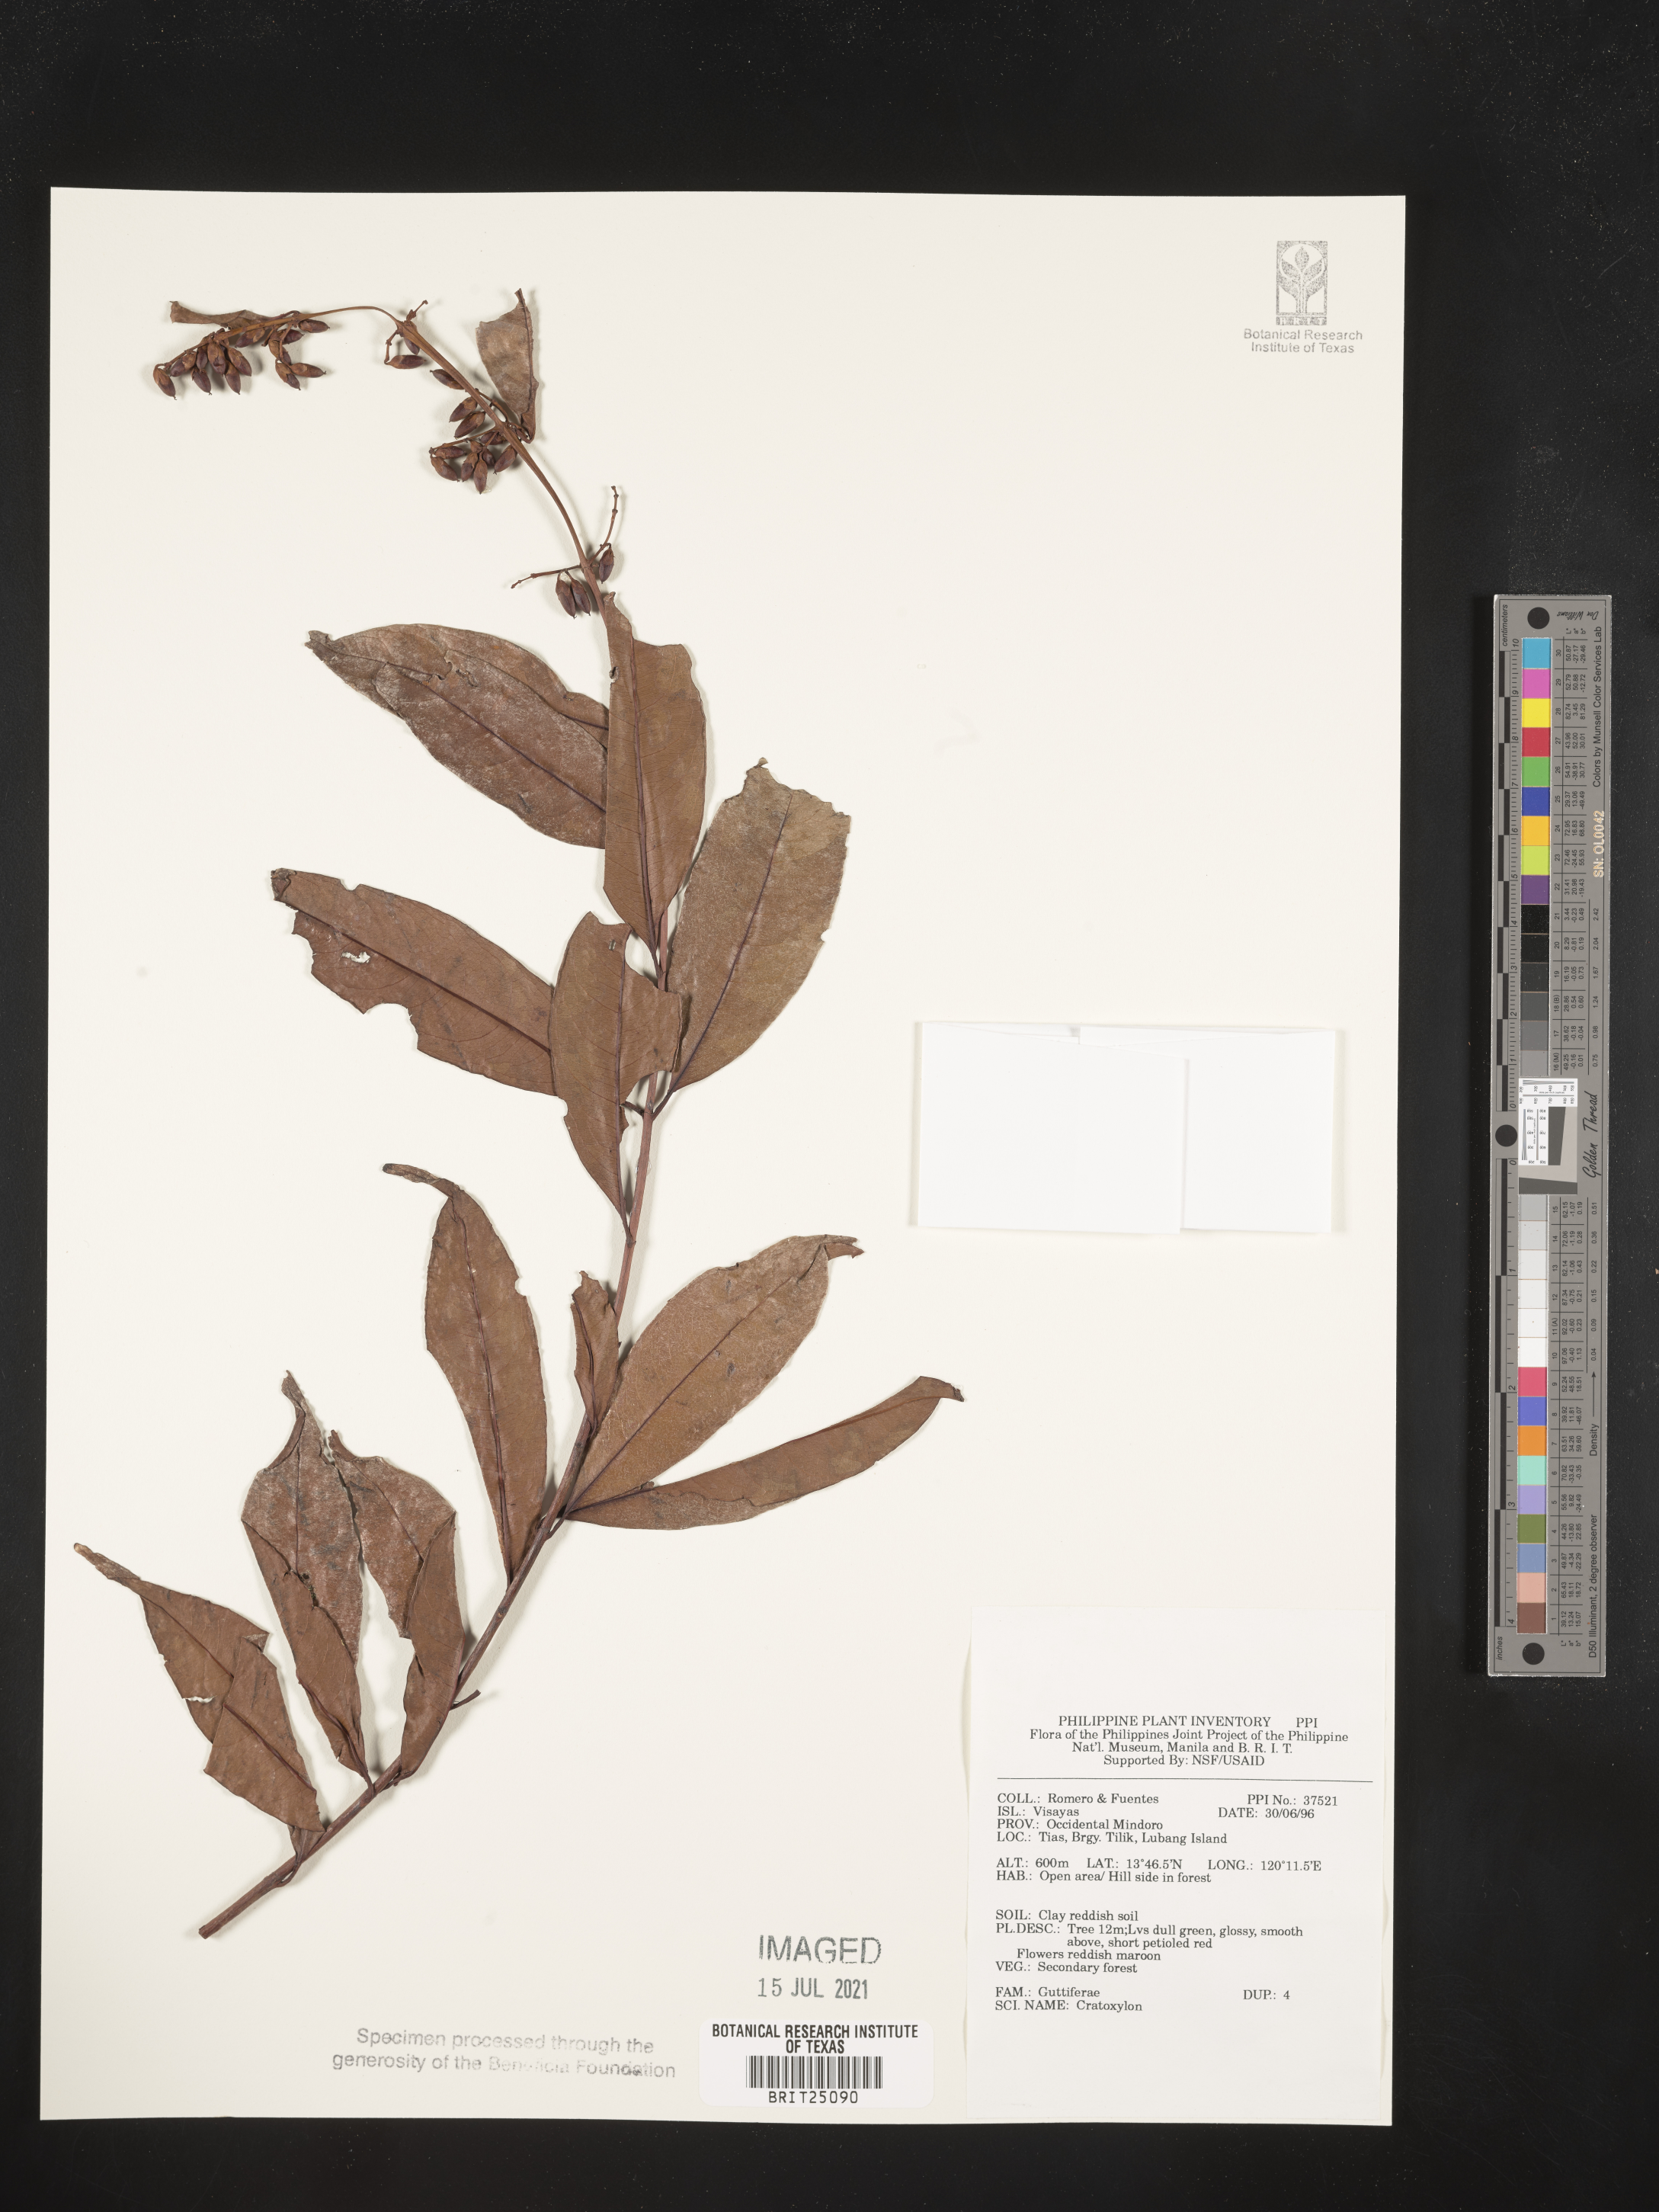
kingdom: Plantae
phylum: Tracheophyta
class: Magnoliopsida
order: Malpighiales
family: Hypericaceae
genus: Cratoxylum
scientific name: Cratoxylum
